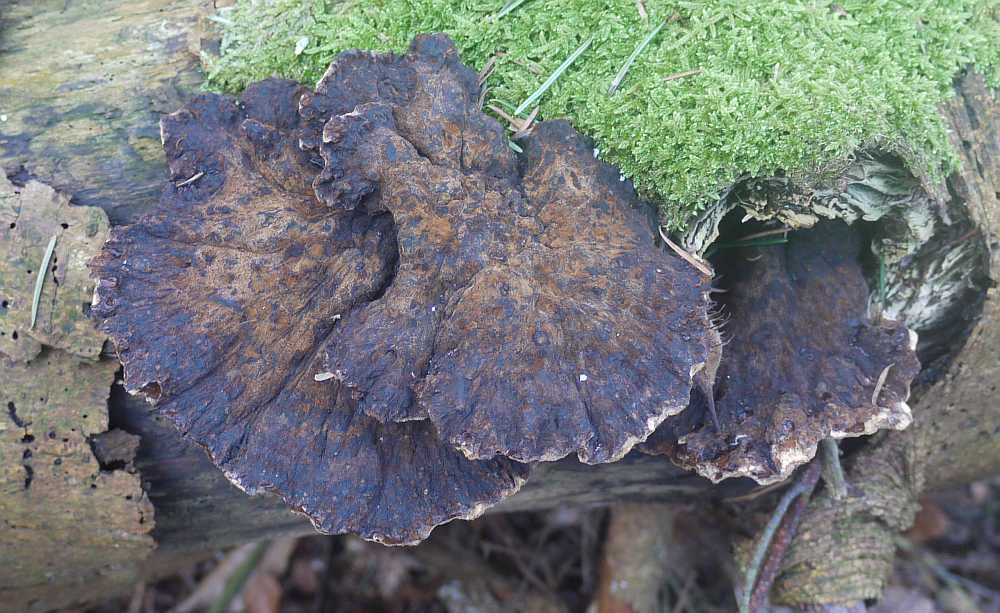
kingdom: Fungi
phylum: Basidiomycota
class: Agaricomycetes
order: Polyporales
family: Ischnodermataceae
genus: Ischnoderma
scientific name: Ischnoderma benzoinum
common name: gran-tjæreporesvamp
